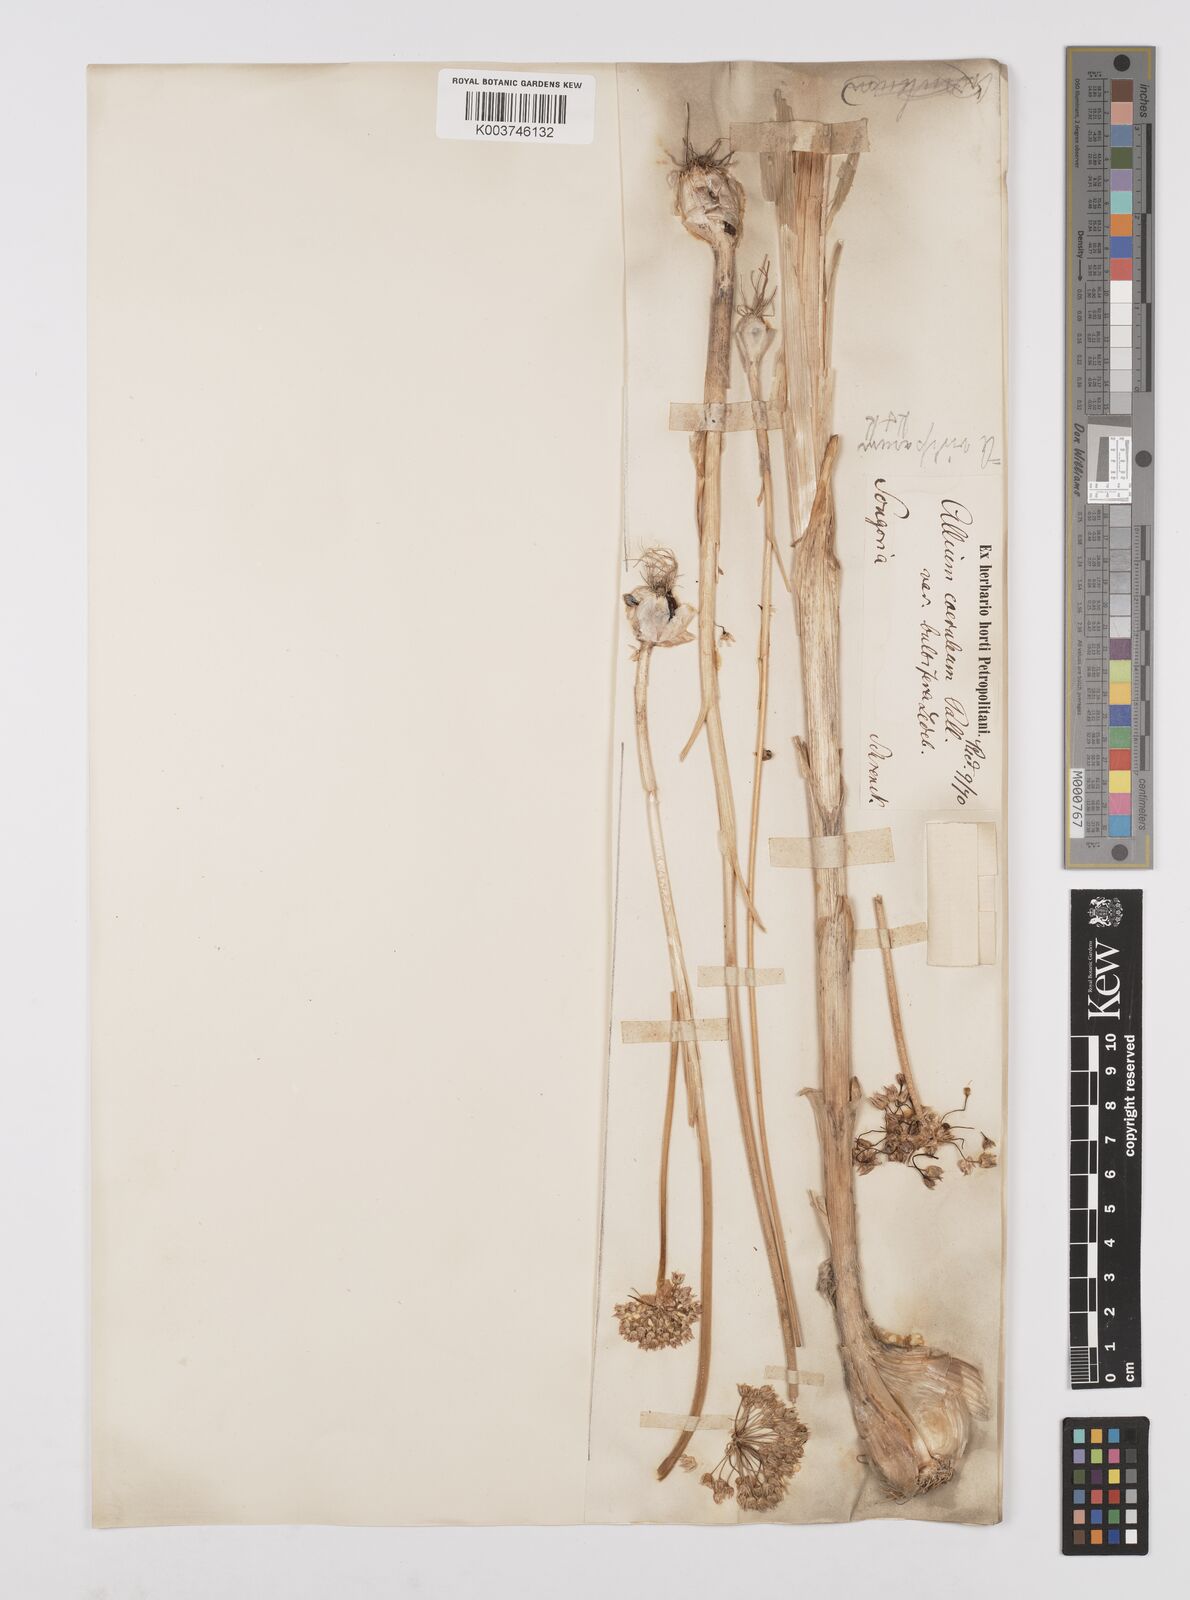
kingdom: Plantae
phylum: Tracheophyta
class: Liliopsida
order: Asparagales
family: Amaryllidaceae
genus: Allium
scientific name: Allium caeruleum
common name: Blue-of-the-heavens
